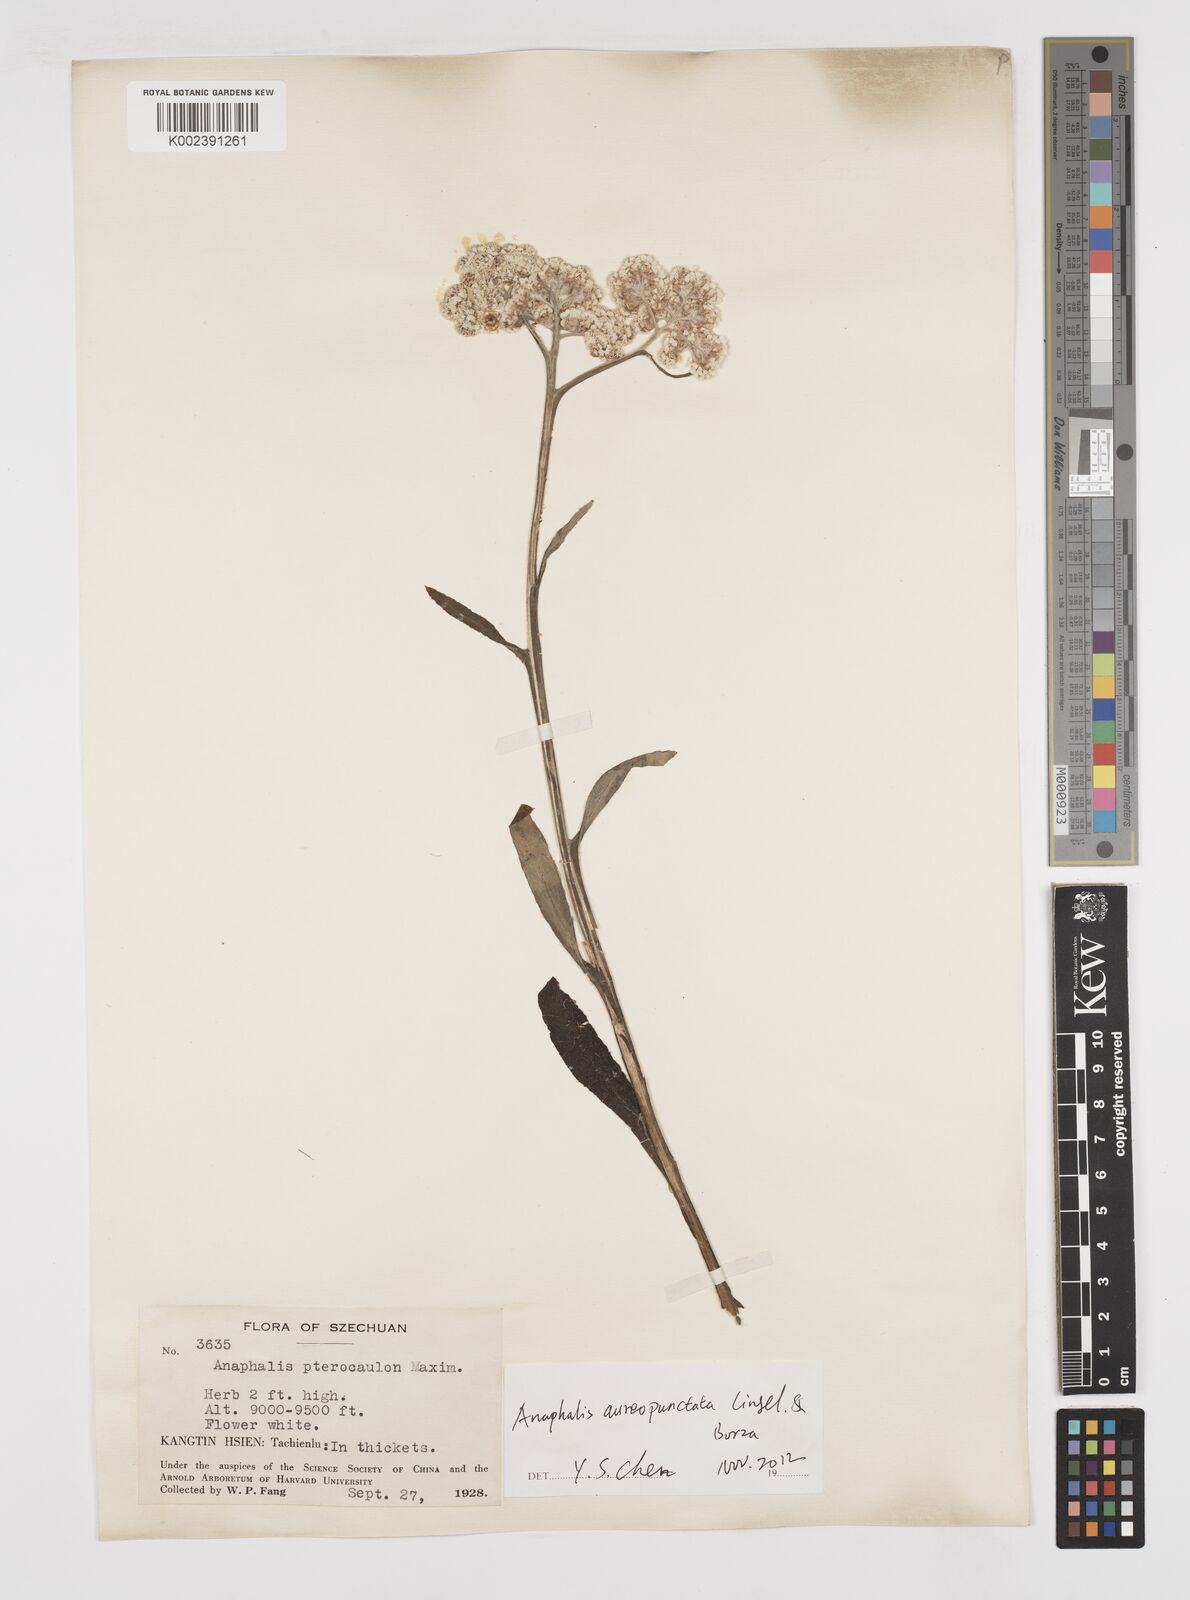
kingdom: Plantae
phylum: Tracheophyta
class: Magnoliopsida
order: Asterales
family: Asteraceae
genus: Anaphalis
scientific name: Anaphalis sinica
